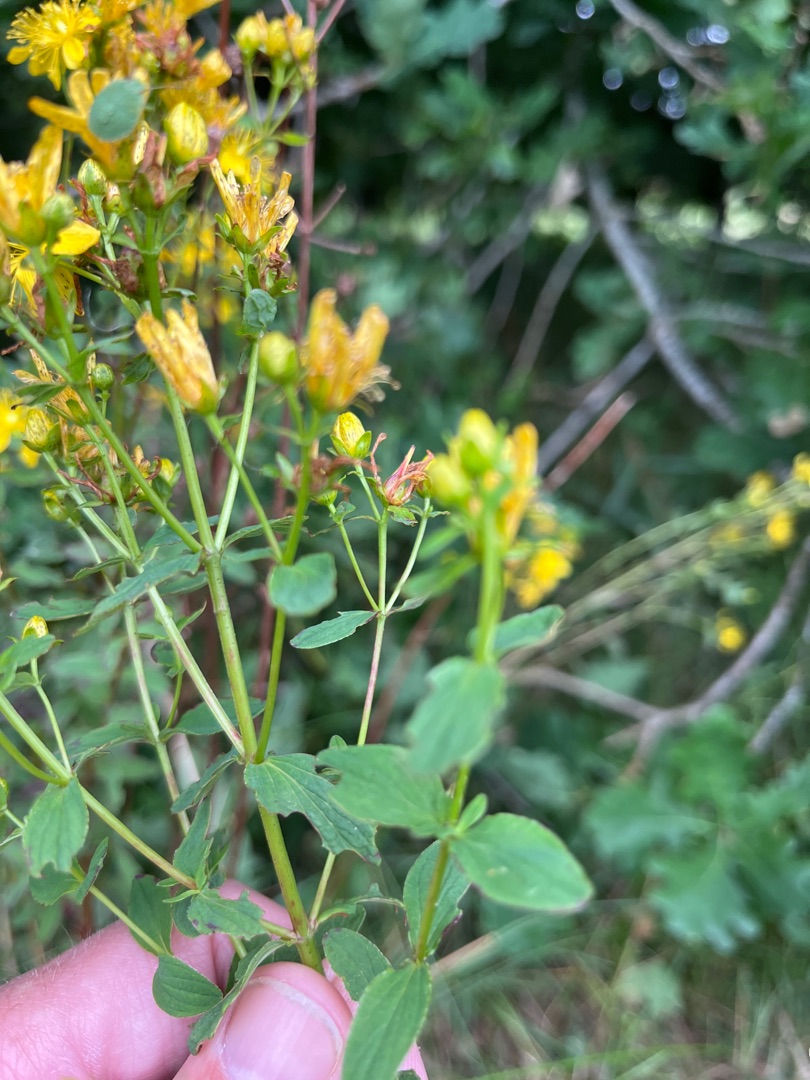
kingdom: Plantae
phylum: Tracheophyta
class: Magnoliopsida
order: Malpighiales
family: Hypericaceae
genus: Hypericum
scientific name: Hypericum perforatum
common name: Prikbladet perikon
